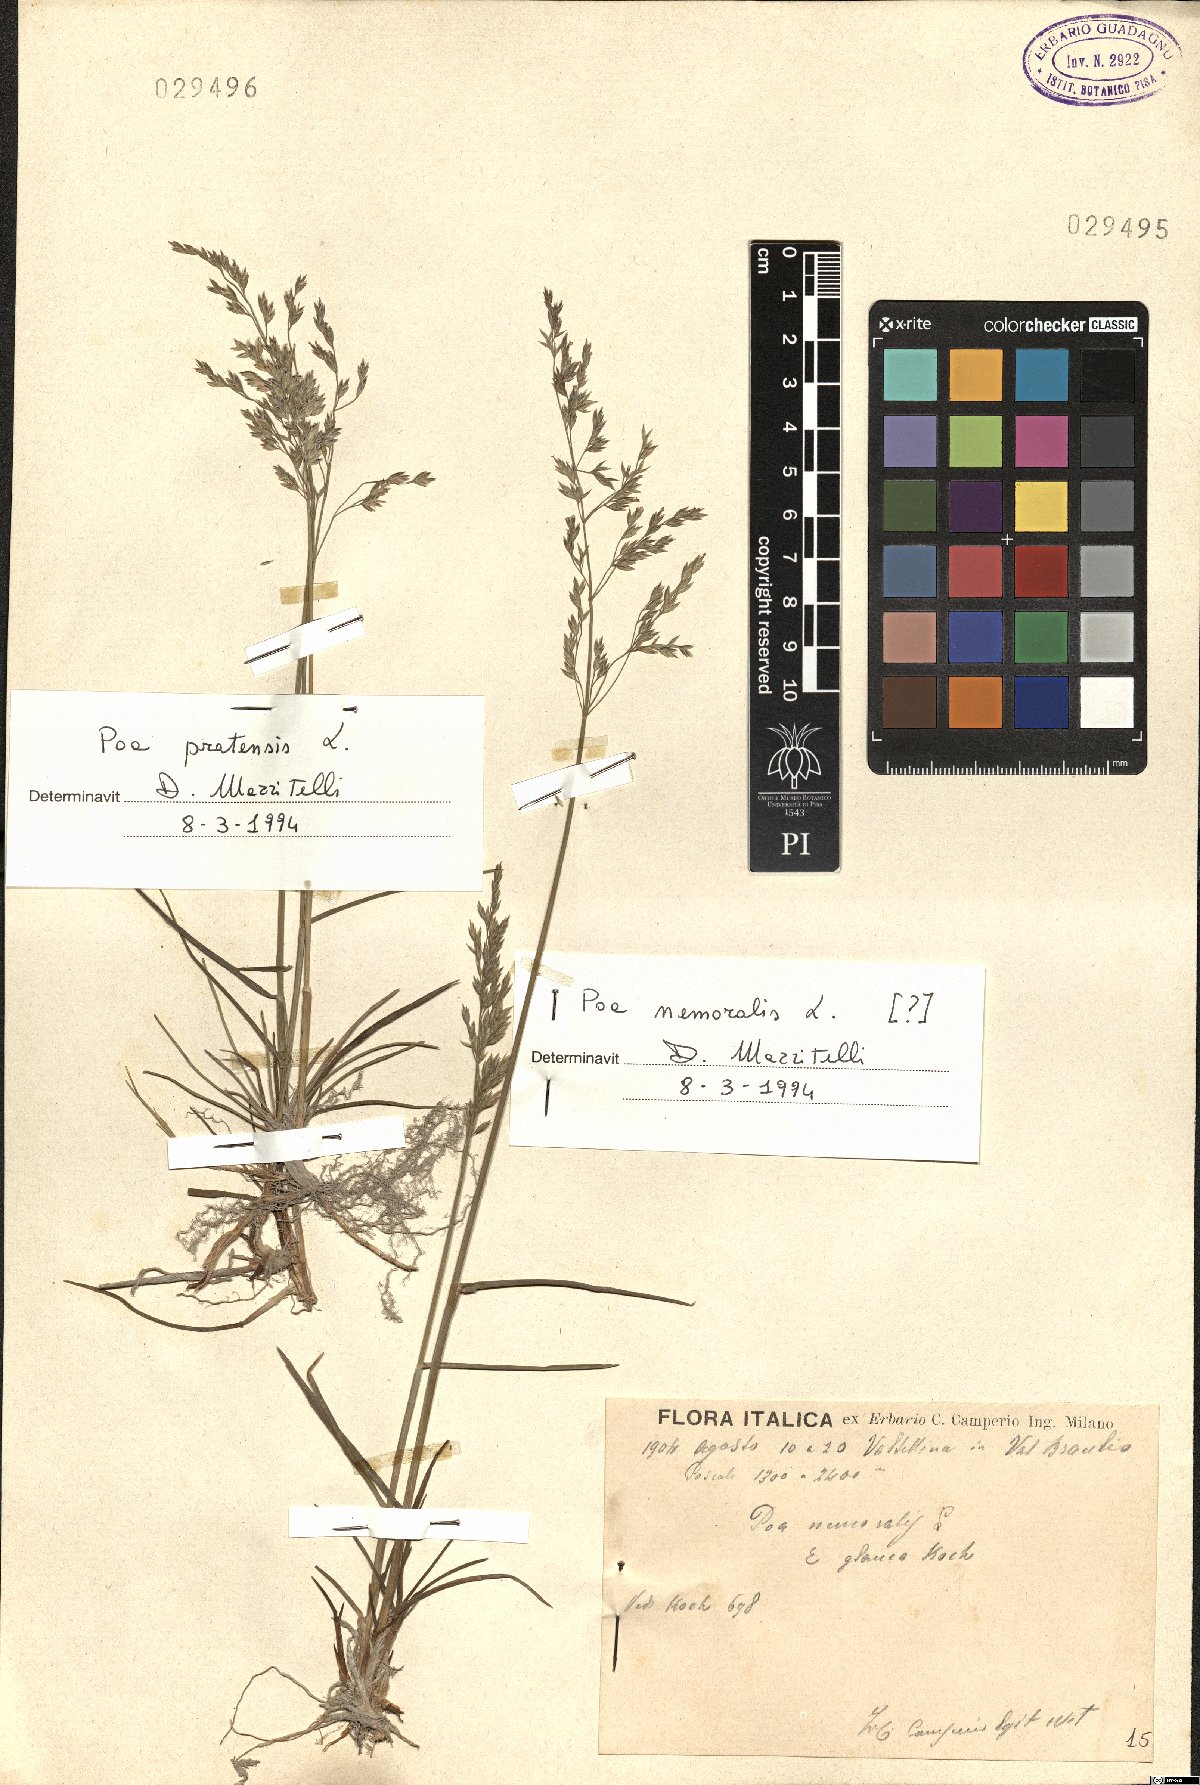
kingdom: Plantae
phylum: Tracheophyta
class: Liliopsida
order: Poales
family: Poaceae
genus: Poa
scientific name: Poa nemoralis
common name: Wood bluegrass
